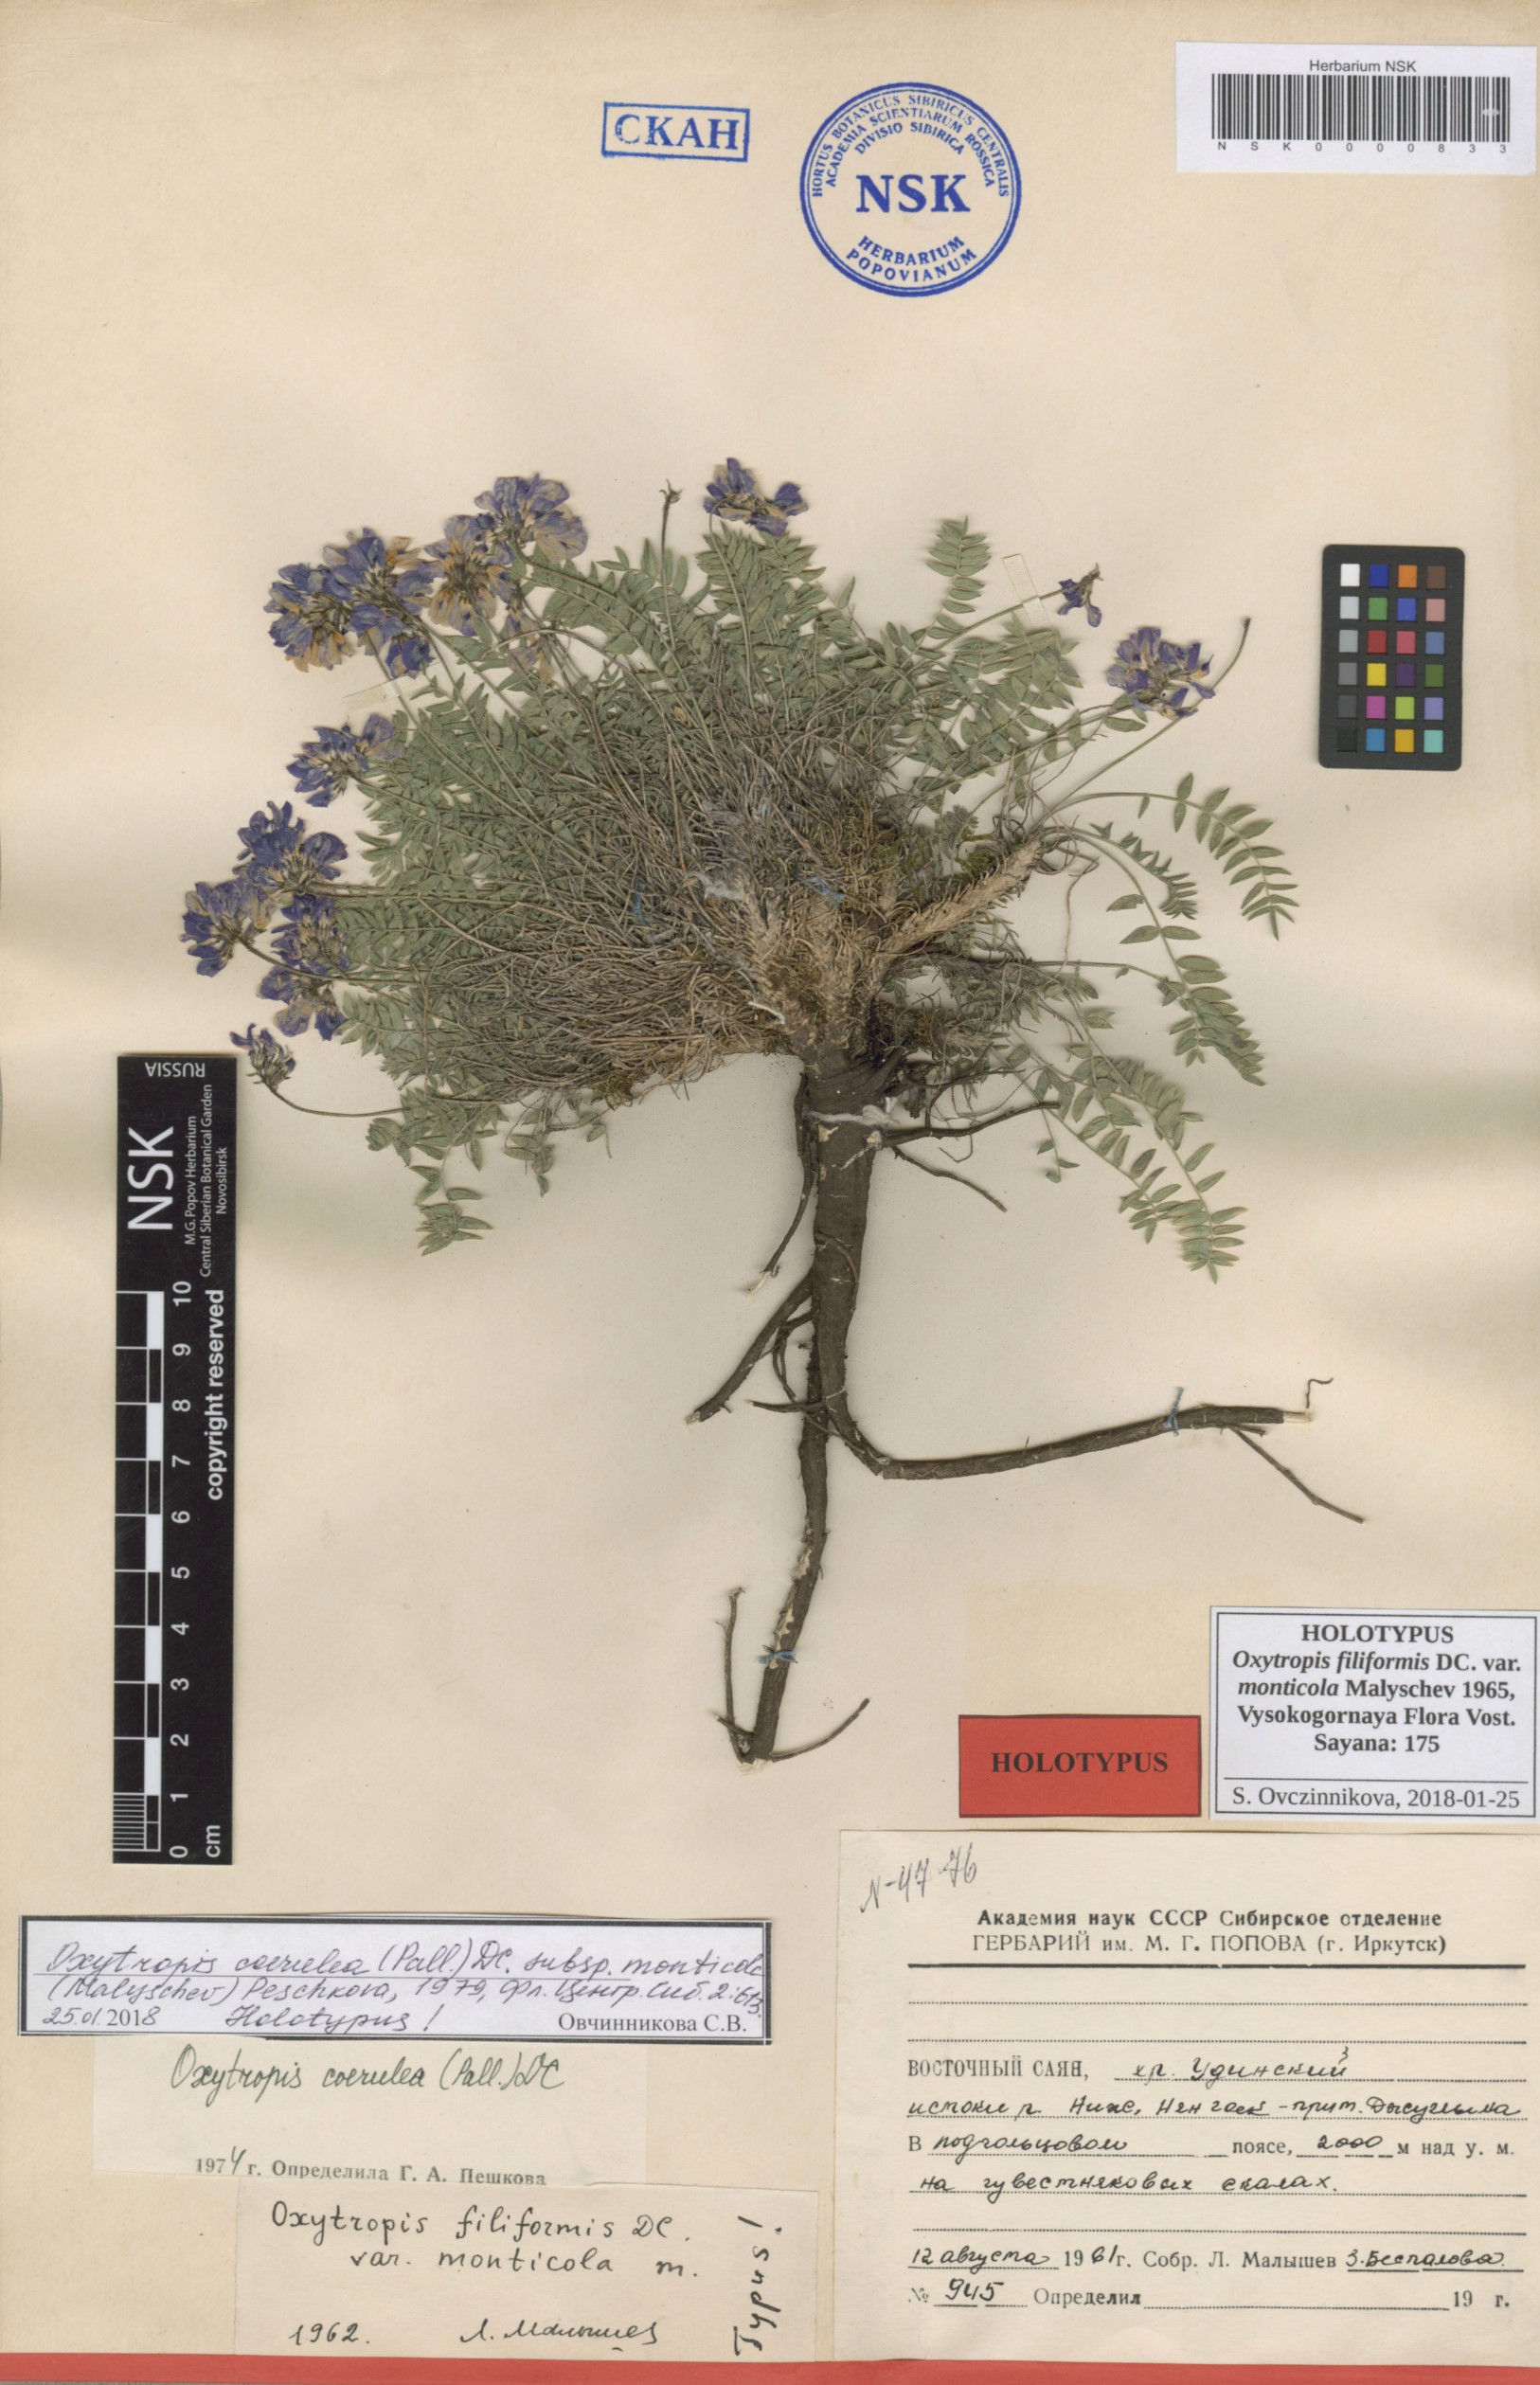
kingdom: Plantae
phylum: Tracheophyta
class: Magnoliopsida
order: Fabales
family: Fabaceae
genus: Oxytropis
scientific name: Oxytropis coerulea
